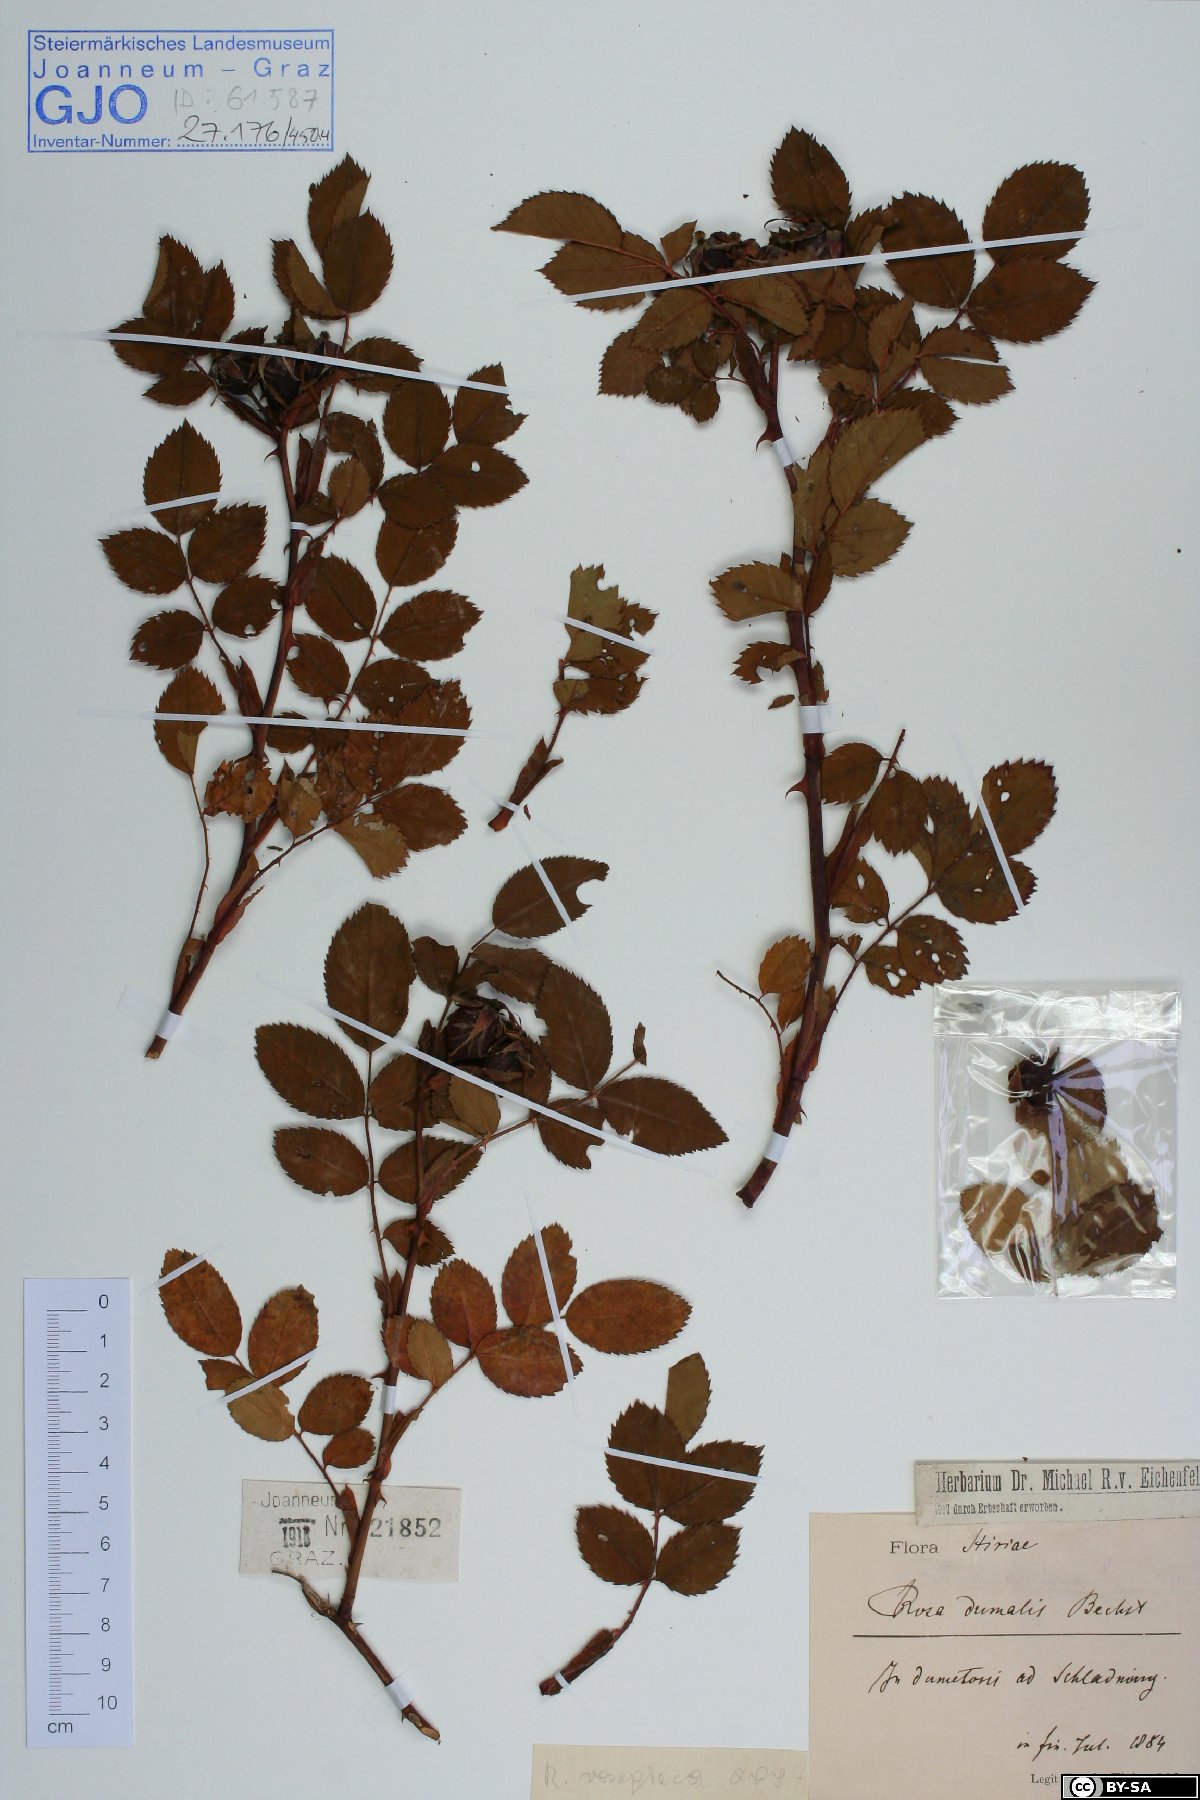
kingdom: Plantae
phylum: Tracheophyta
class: Magnoliopsida
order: Rosales
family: Rosaceae
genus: Rosa
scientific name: Rosa dumalis
